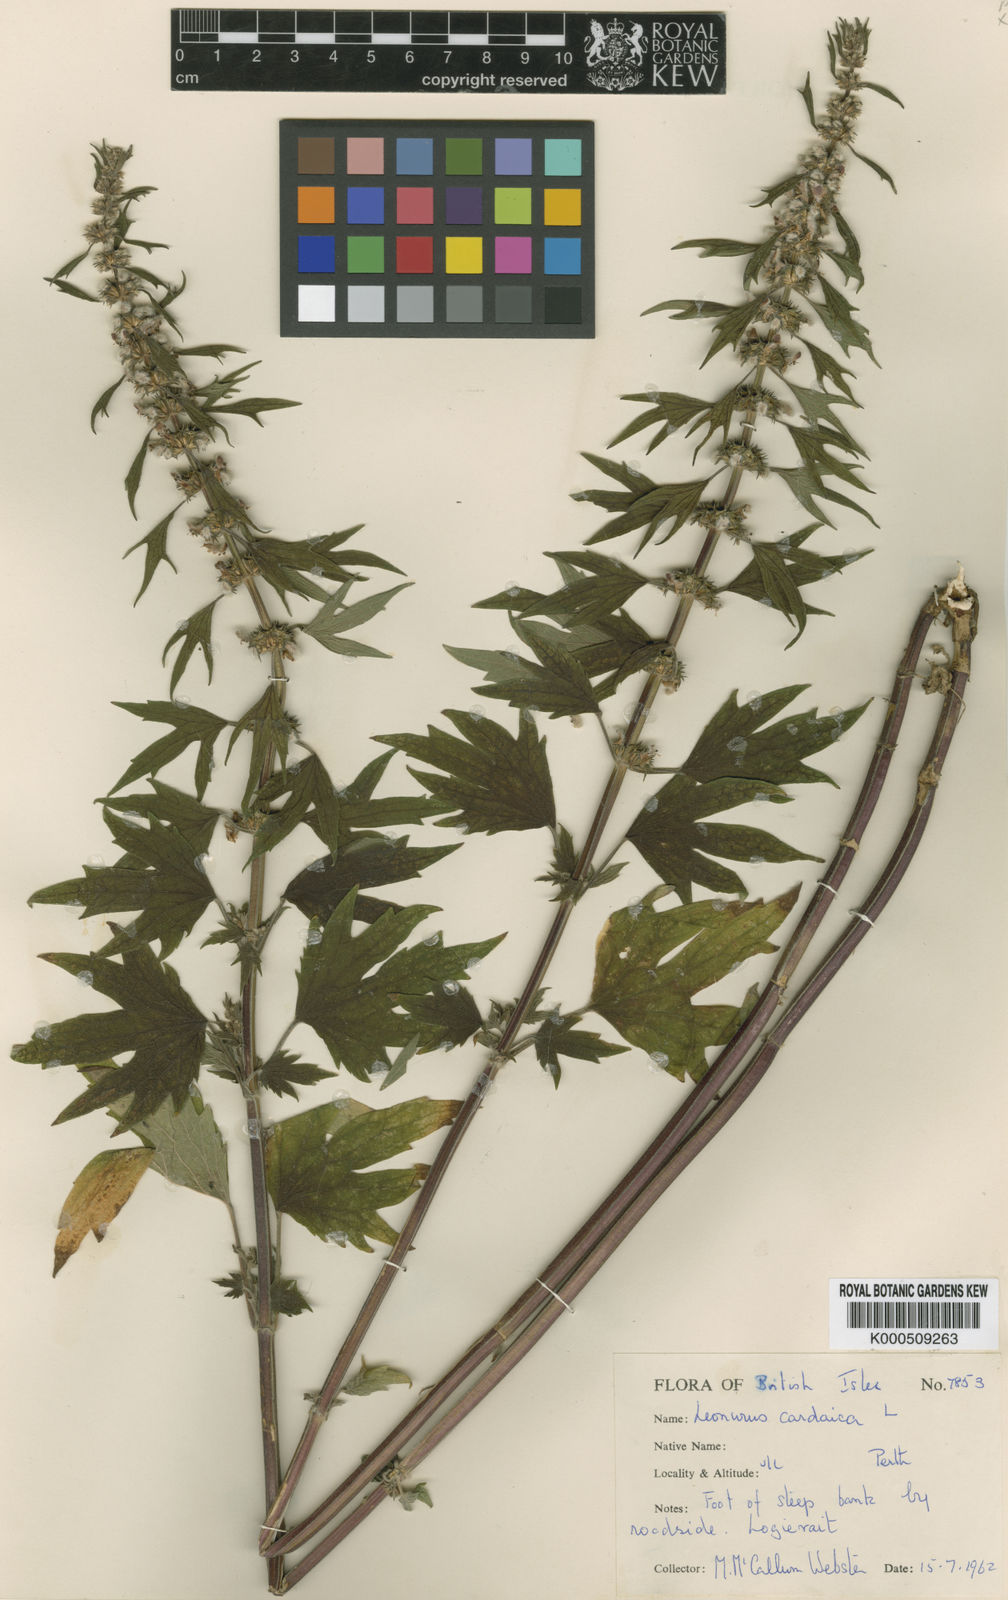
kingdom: Plantae
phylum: Tracheophyta
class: Magnoliopsida
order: Lamiales
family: Lamiaceae
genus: Leonurus
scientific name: Leonurus cardiaca
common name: Motherwort
